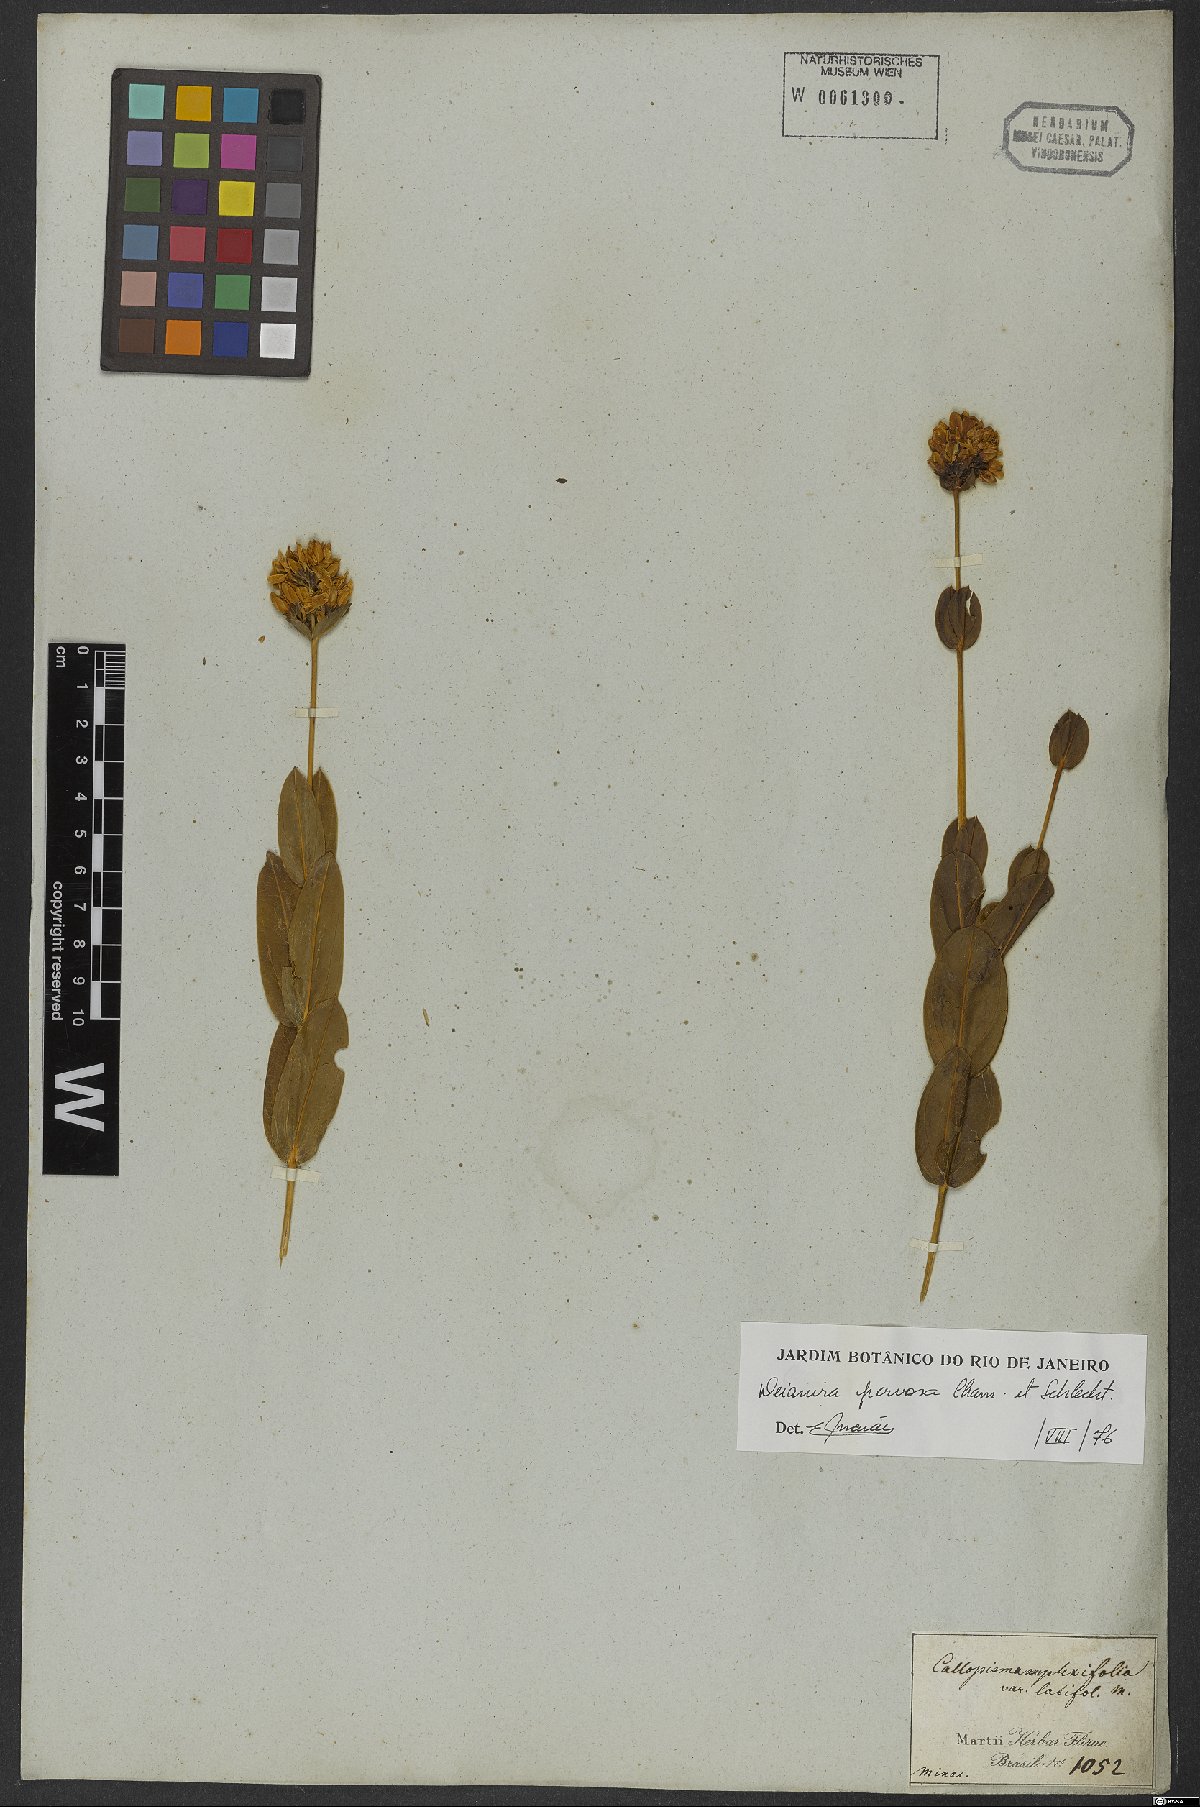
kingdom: Plantae
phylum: Tracheophyta
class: Magnoliopsida
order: Gentianales
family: Gentianaceae
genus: Deianira
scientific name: Deianira nervosa
